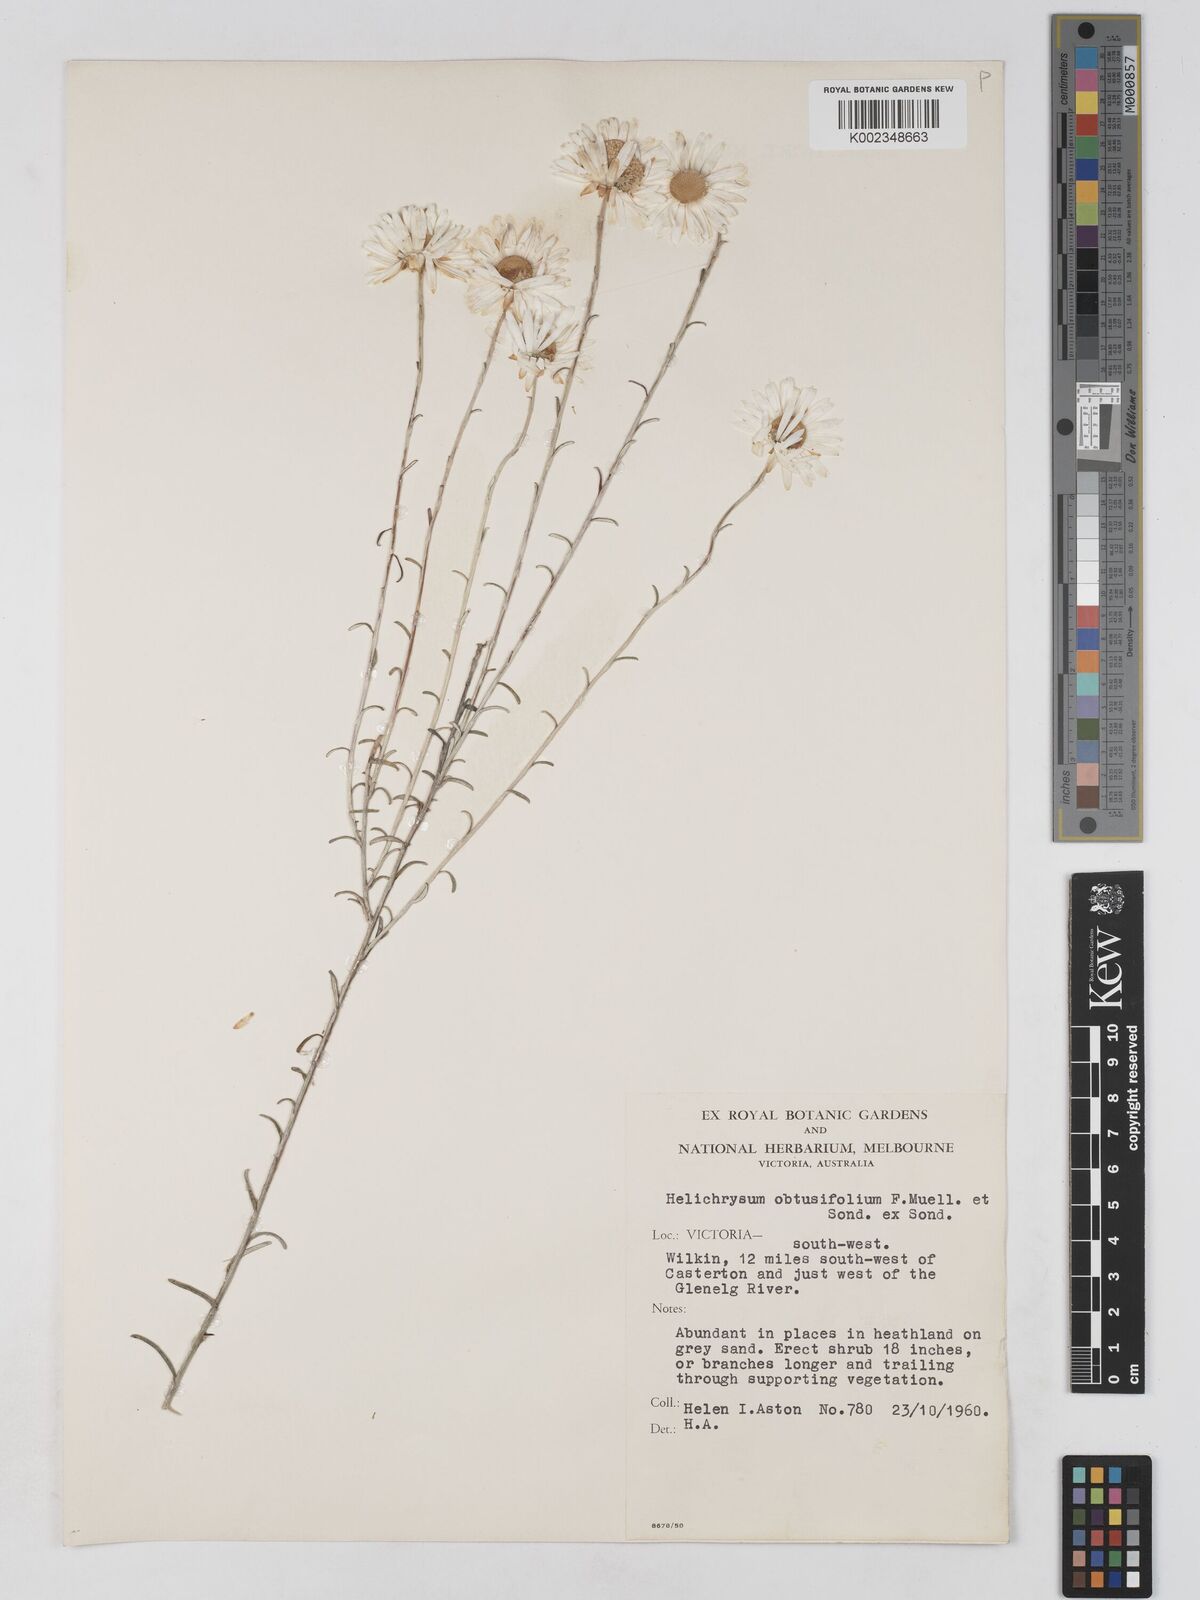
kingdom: Plantae
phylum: Tracheophyta
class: Magnoliopsida
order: Asterales
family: Asteraceae
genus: Argentipallium
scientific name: Argentipallium obtusifolium
